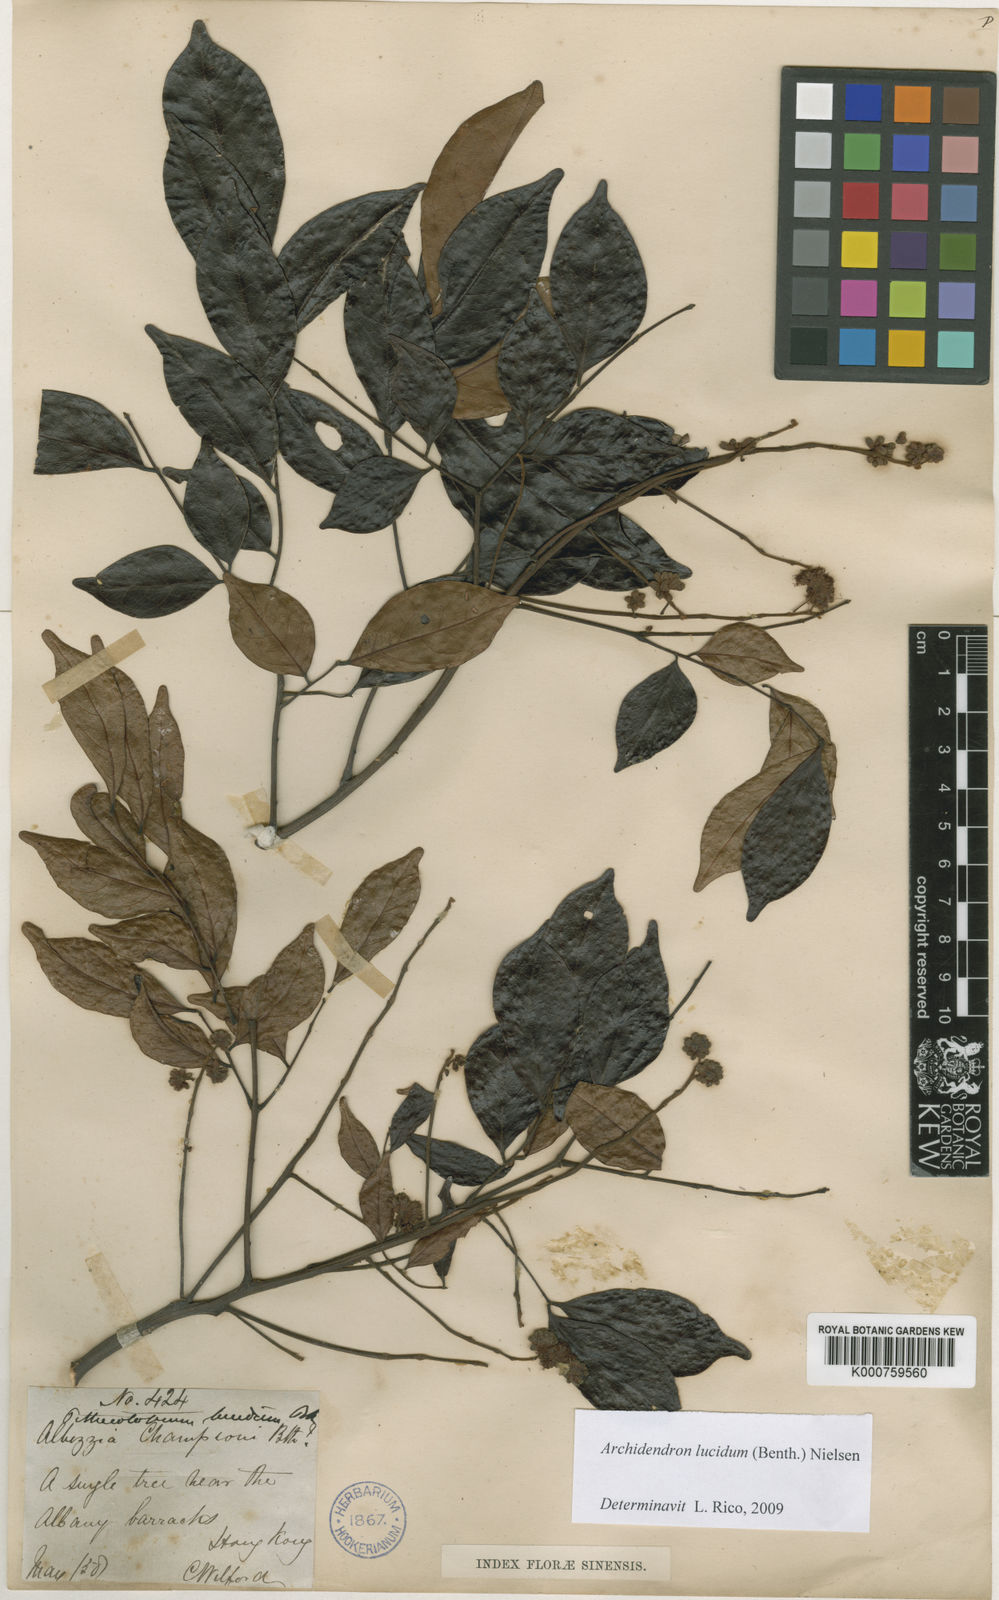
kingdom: Plantae
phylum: Tracheophyta
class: Magnoliopsida
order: Fabales
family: Fabaceae
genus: Archidendron
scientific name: Archidendron lucidum
